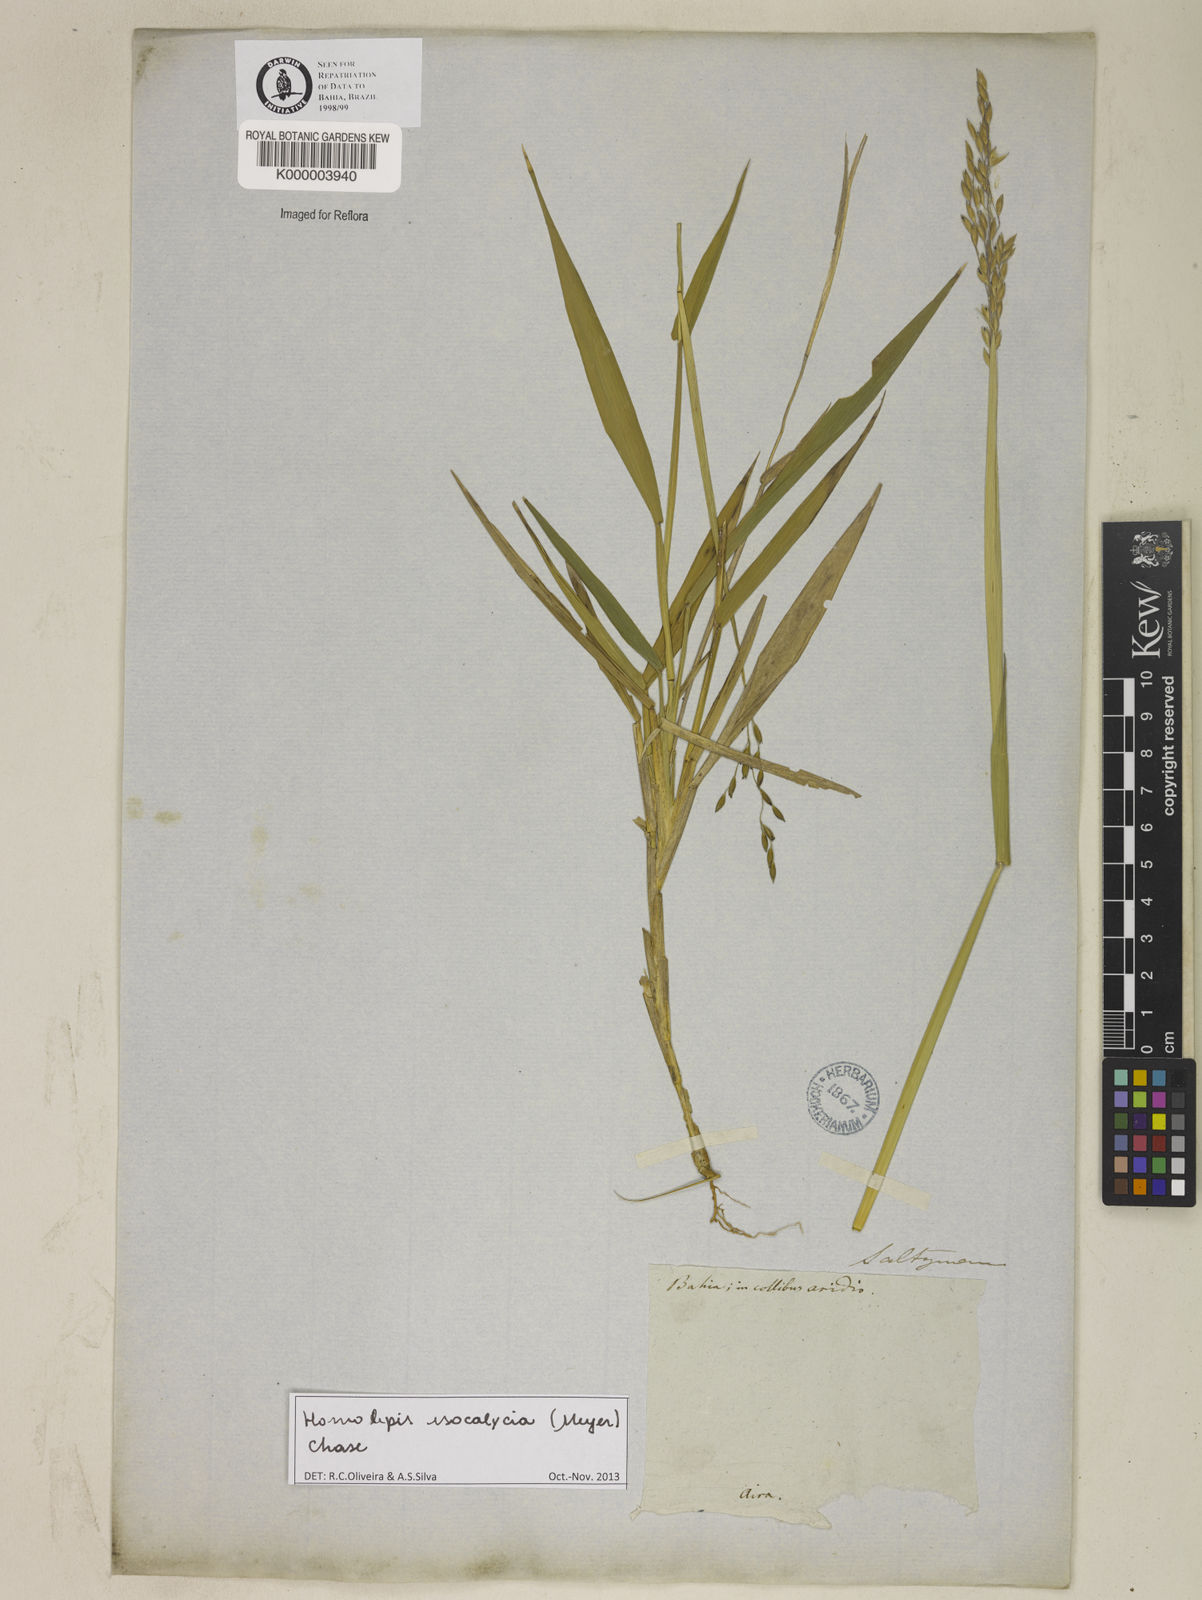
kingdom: Plantae
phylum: Tracheophyta
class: Liliopsida
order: Poales
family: Poaceae
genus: Homolepis
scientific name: Homolepis
